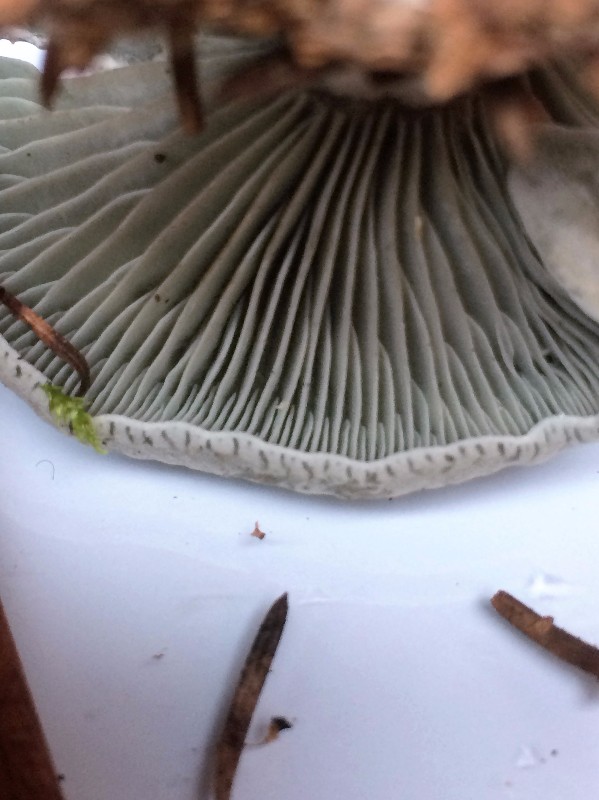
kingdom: Fungi
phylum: Basidiomycota
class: Agaricomycetes
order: Agaricales
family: Tricholomataceae
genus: Clitocybe
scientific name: Clitocybe odora
